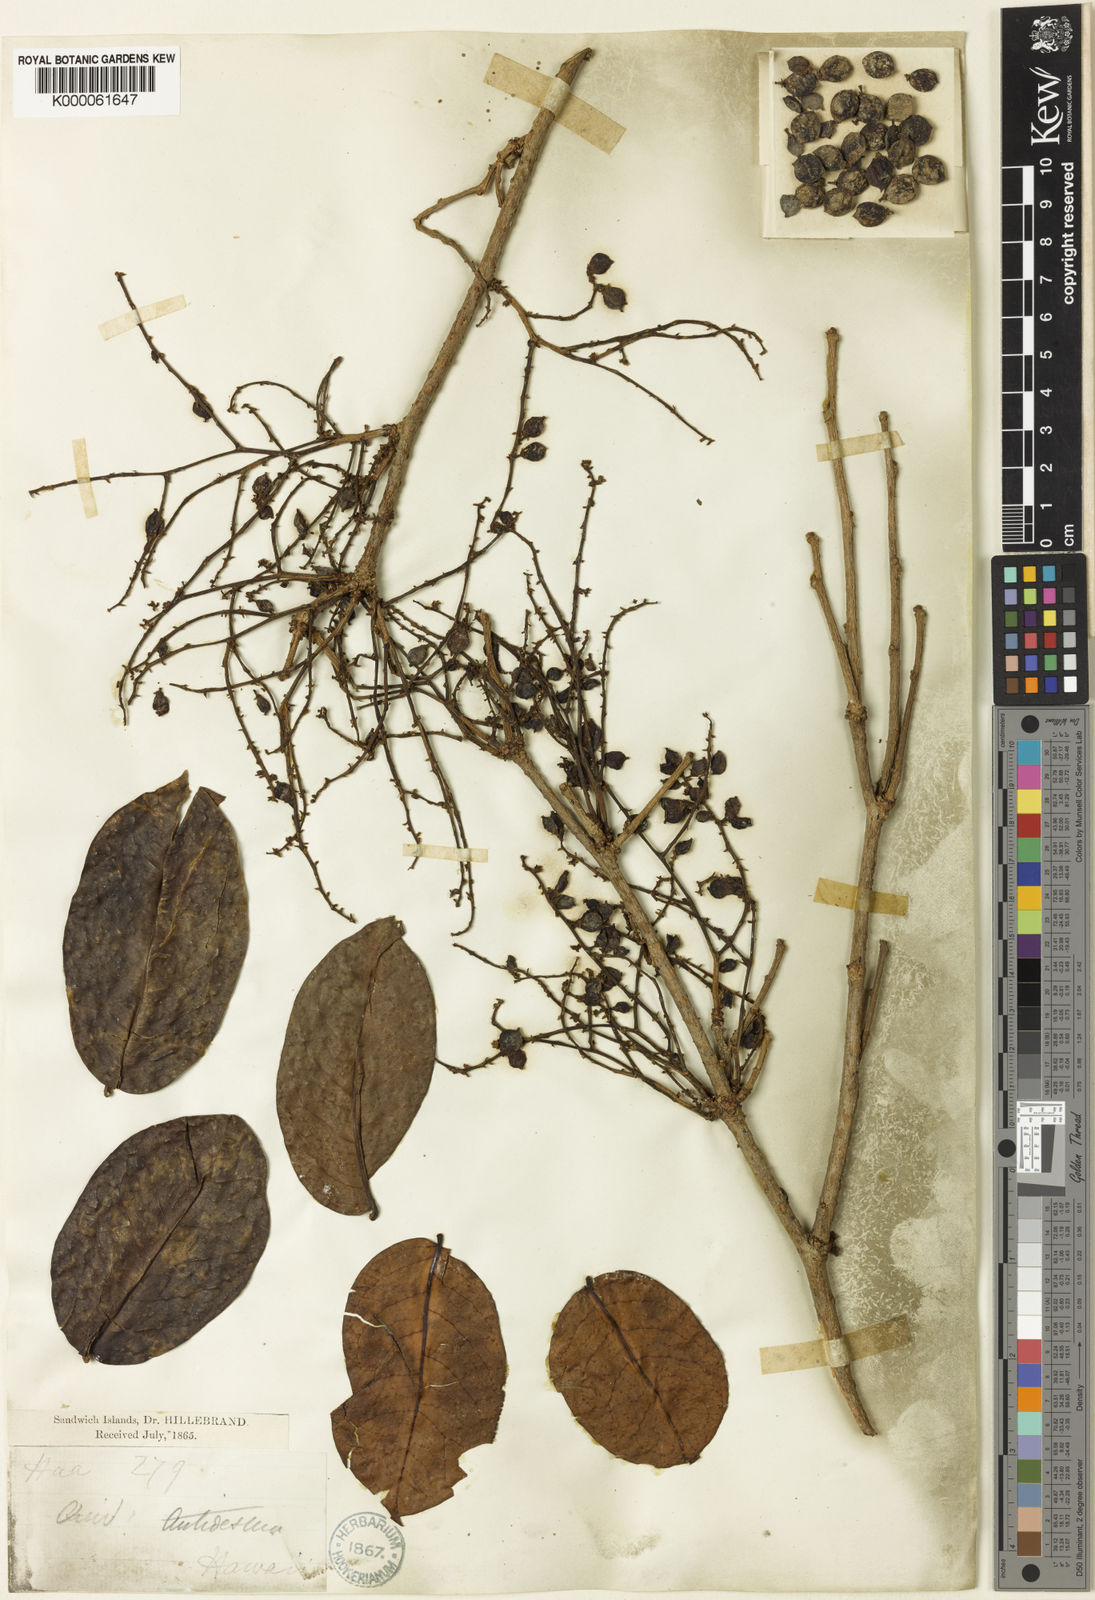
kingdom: Plantae
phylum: Tracheophyta
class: Magnoliopsida
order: Malpighiales
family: Phyllanthaceae
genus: Antidesma
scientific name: Antidesma platyphyllum
